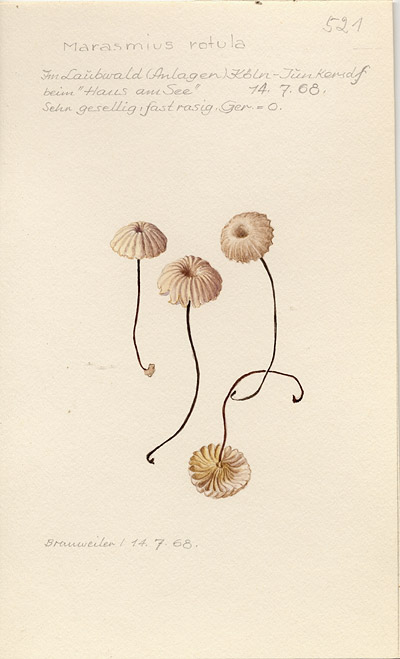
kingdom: Fungi
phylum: Basidiomycota
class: Agaricomycetes
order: Agaricales
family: Marasmiaceae
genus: Marasmius
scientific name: Marasmius rotula
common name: Collared parachute
